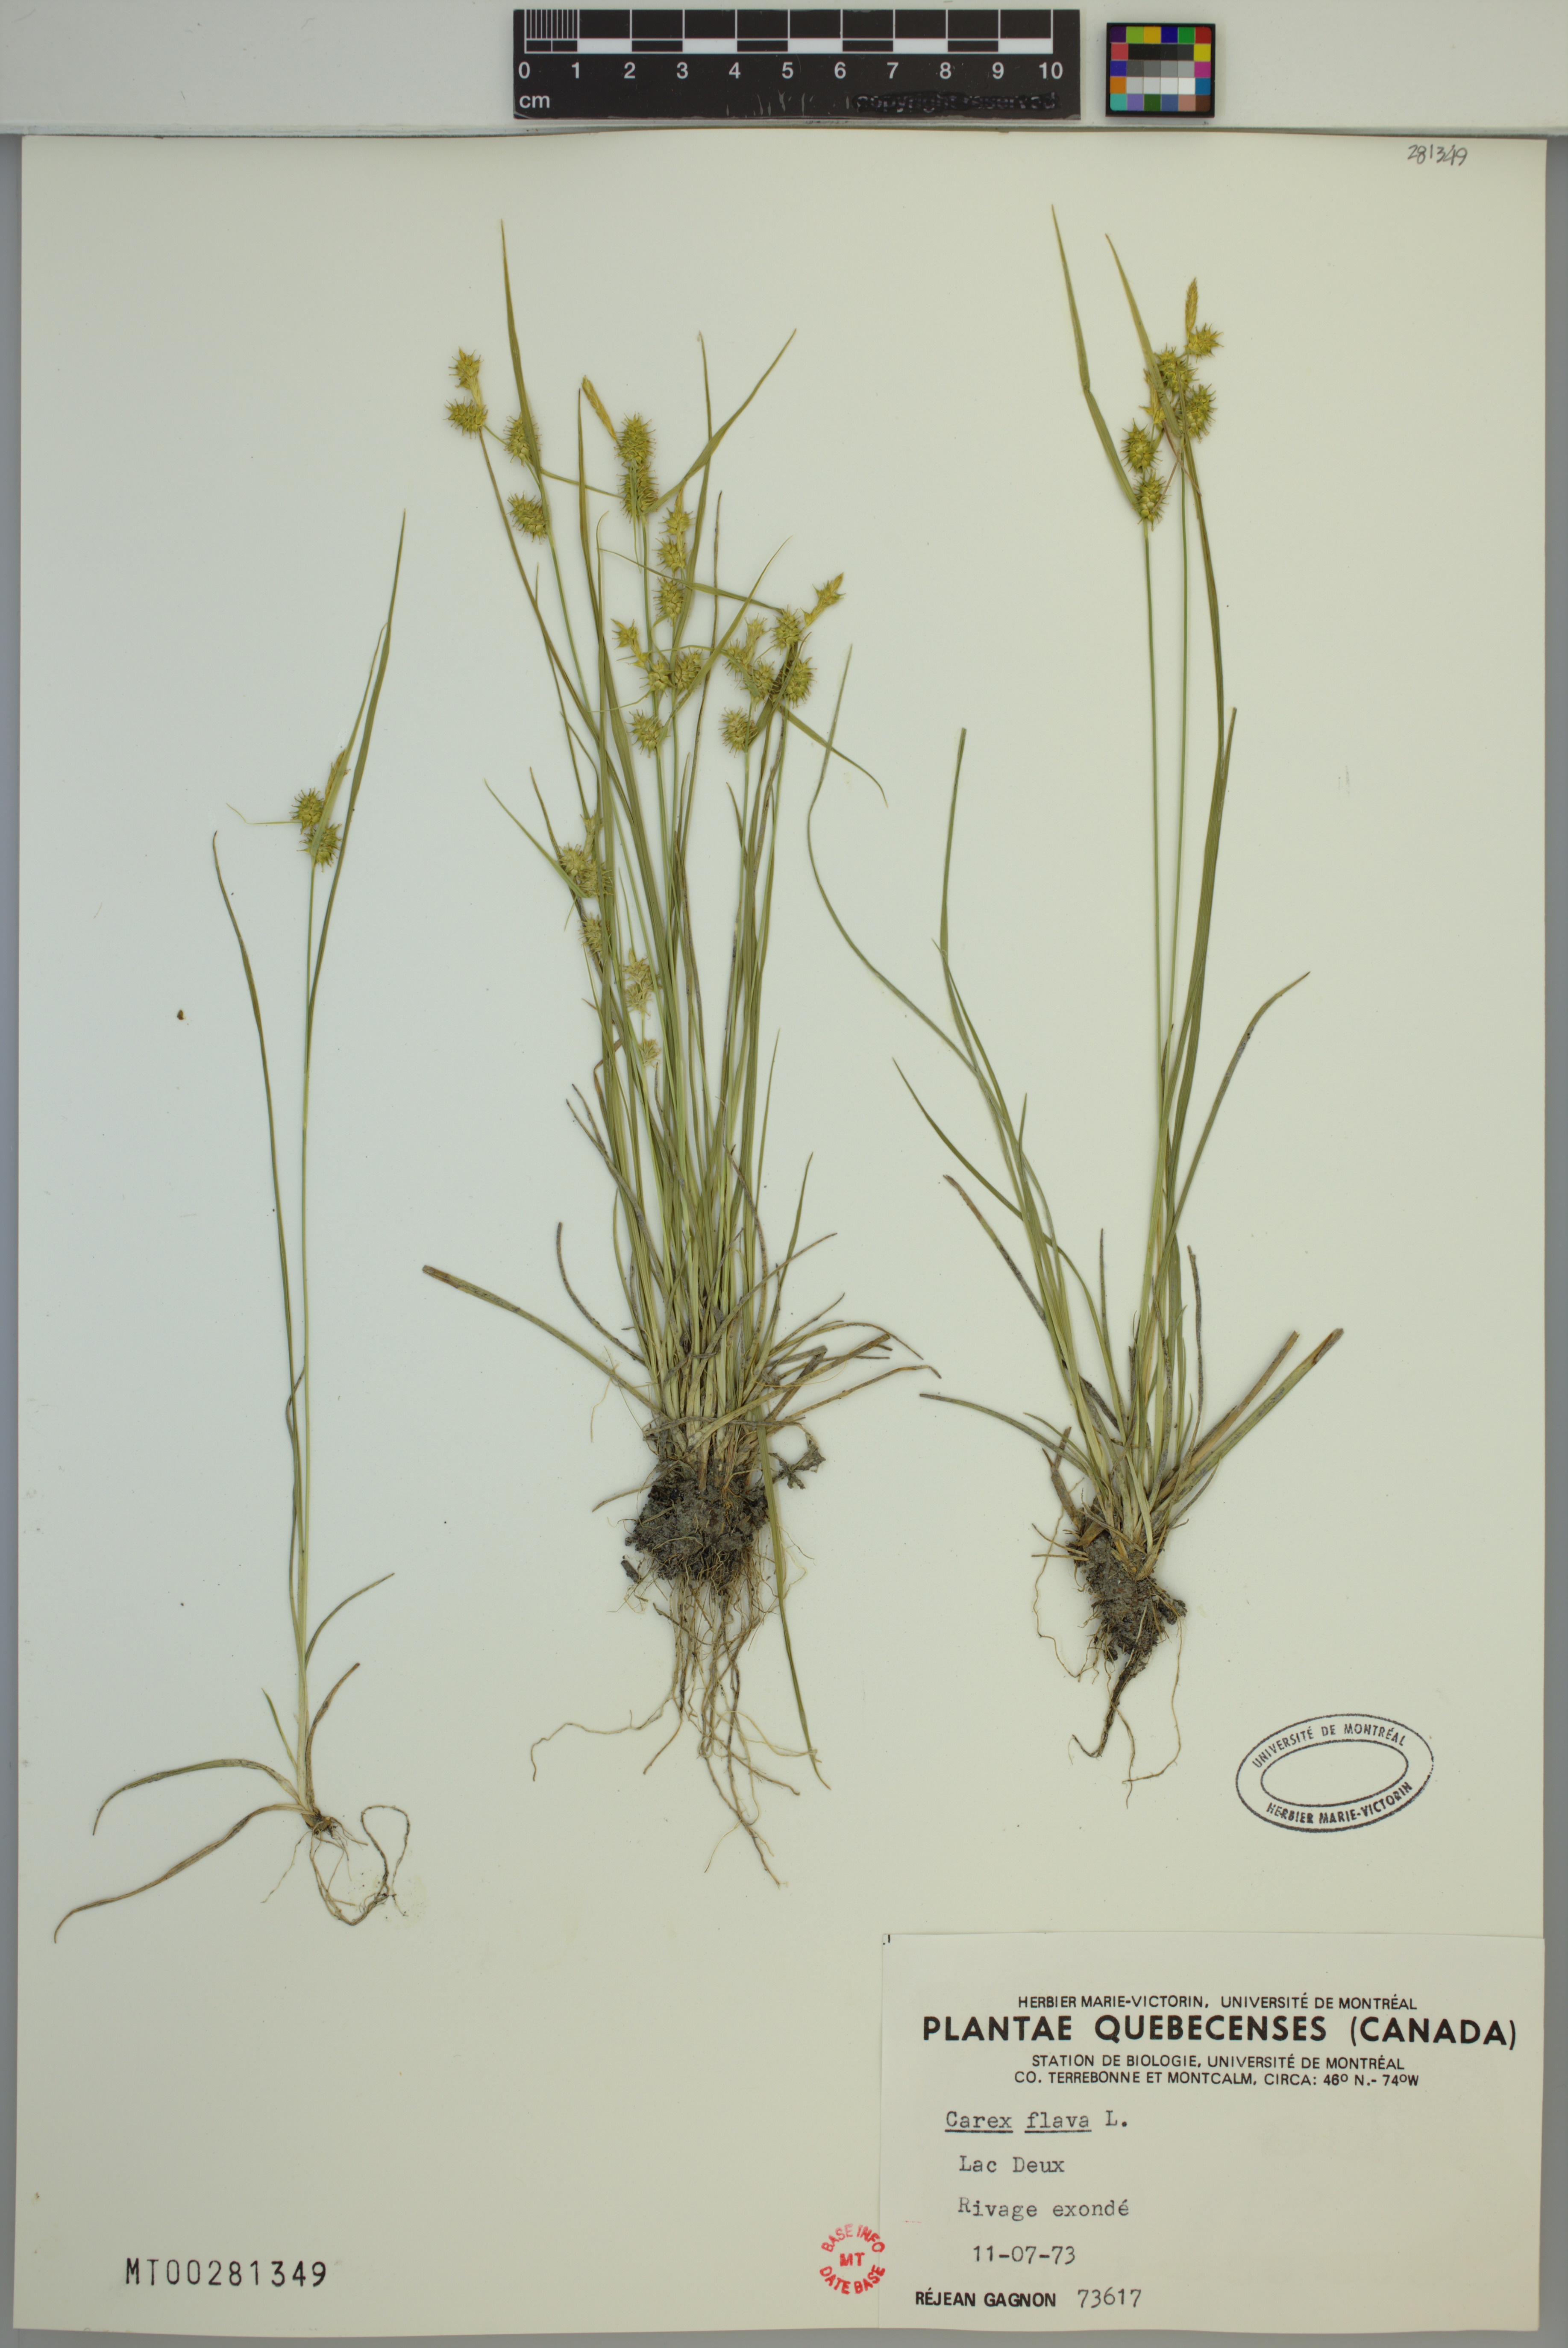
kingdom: Plantae
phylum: Tracheophyta
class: Liliopsida
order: Poales
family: Cyperaceae
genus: Carex
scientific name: Carex cryptolepis
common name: Northeastern sedge
